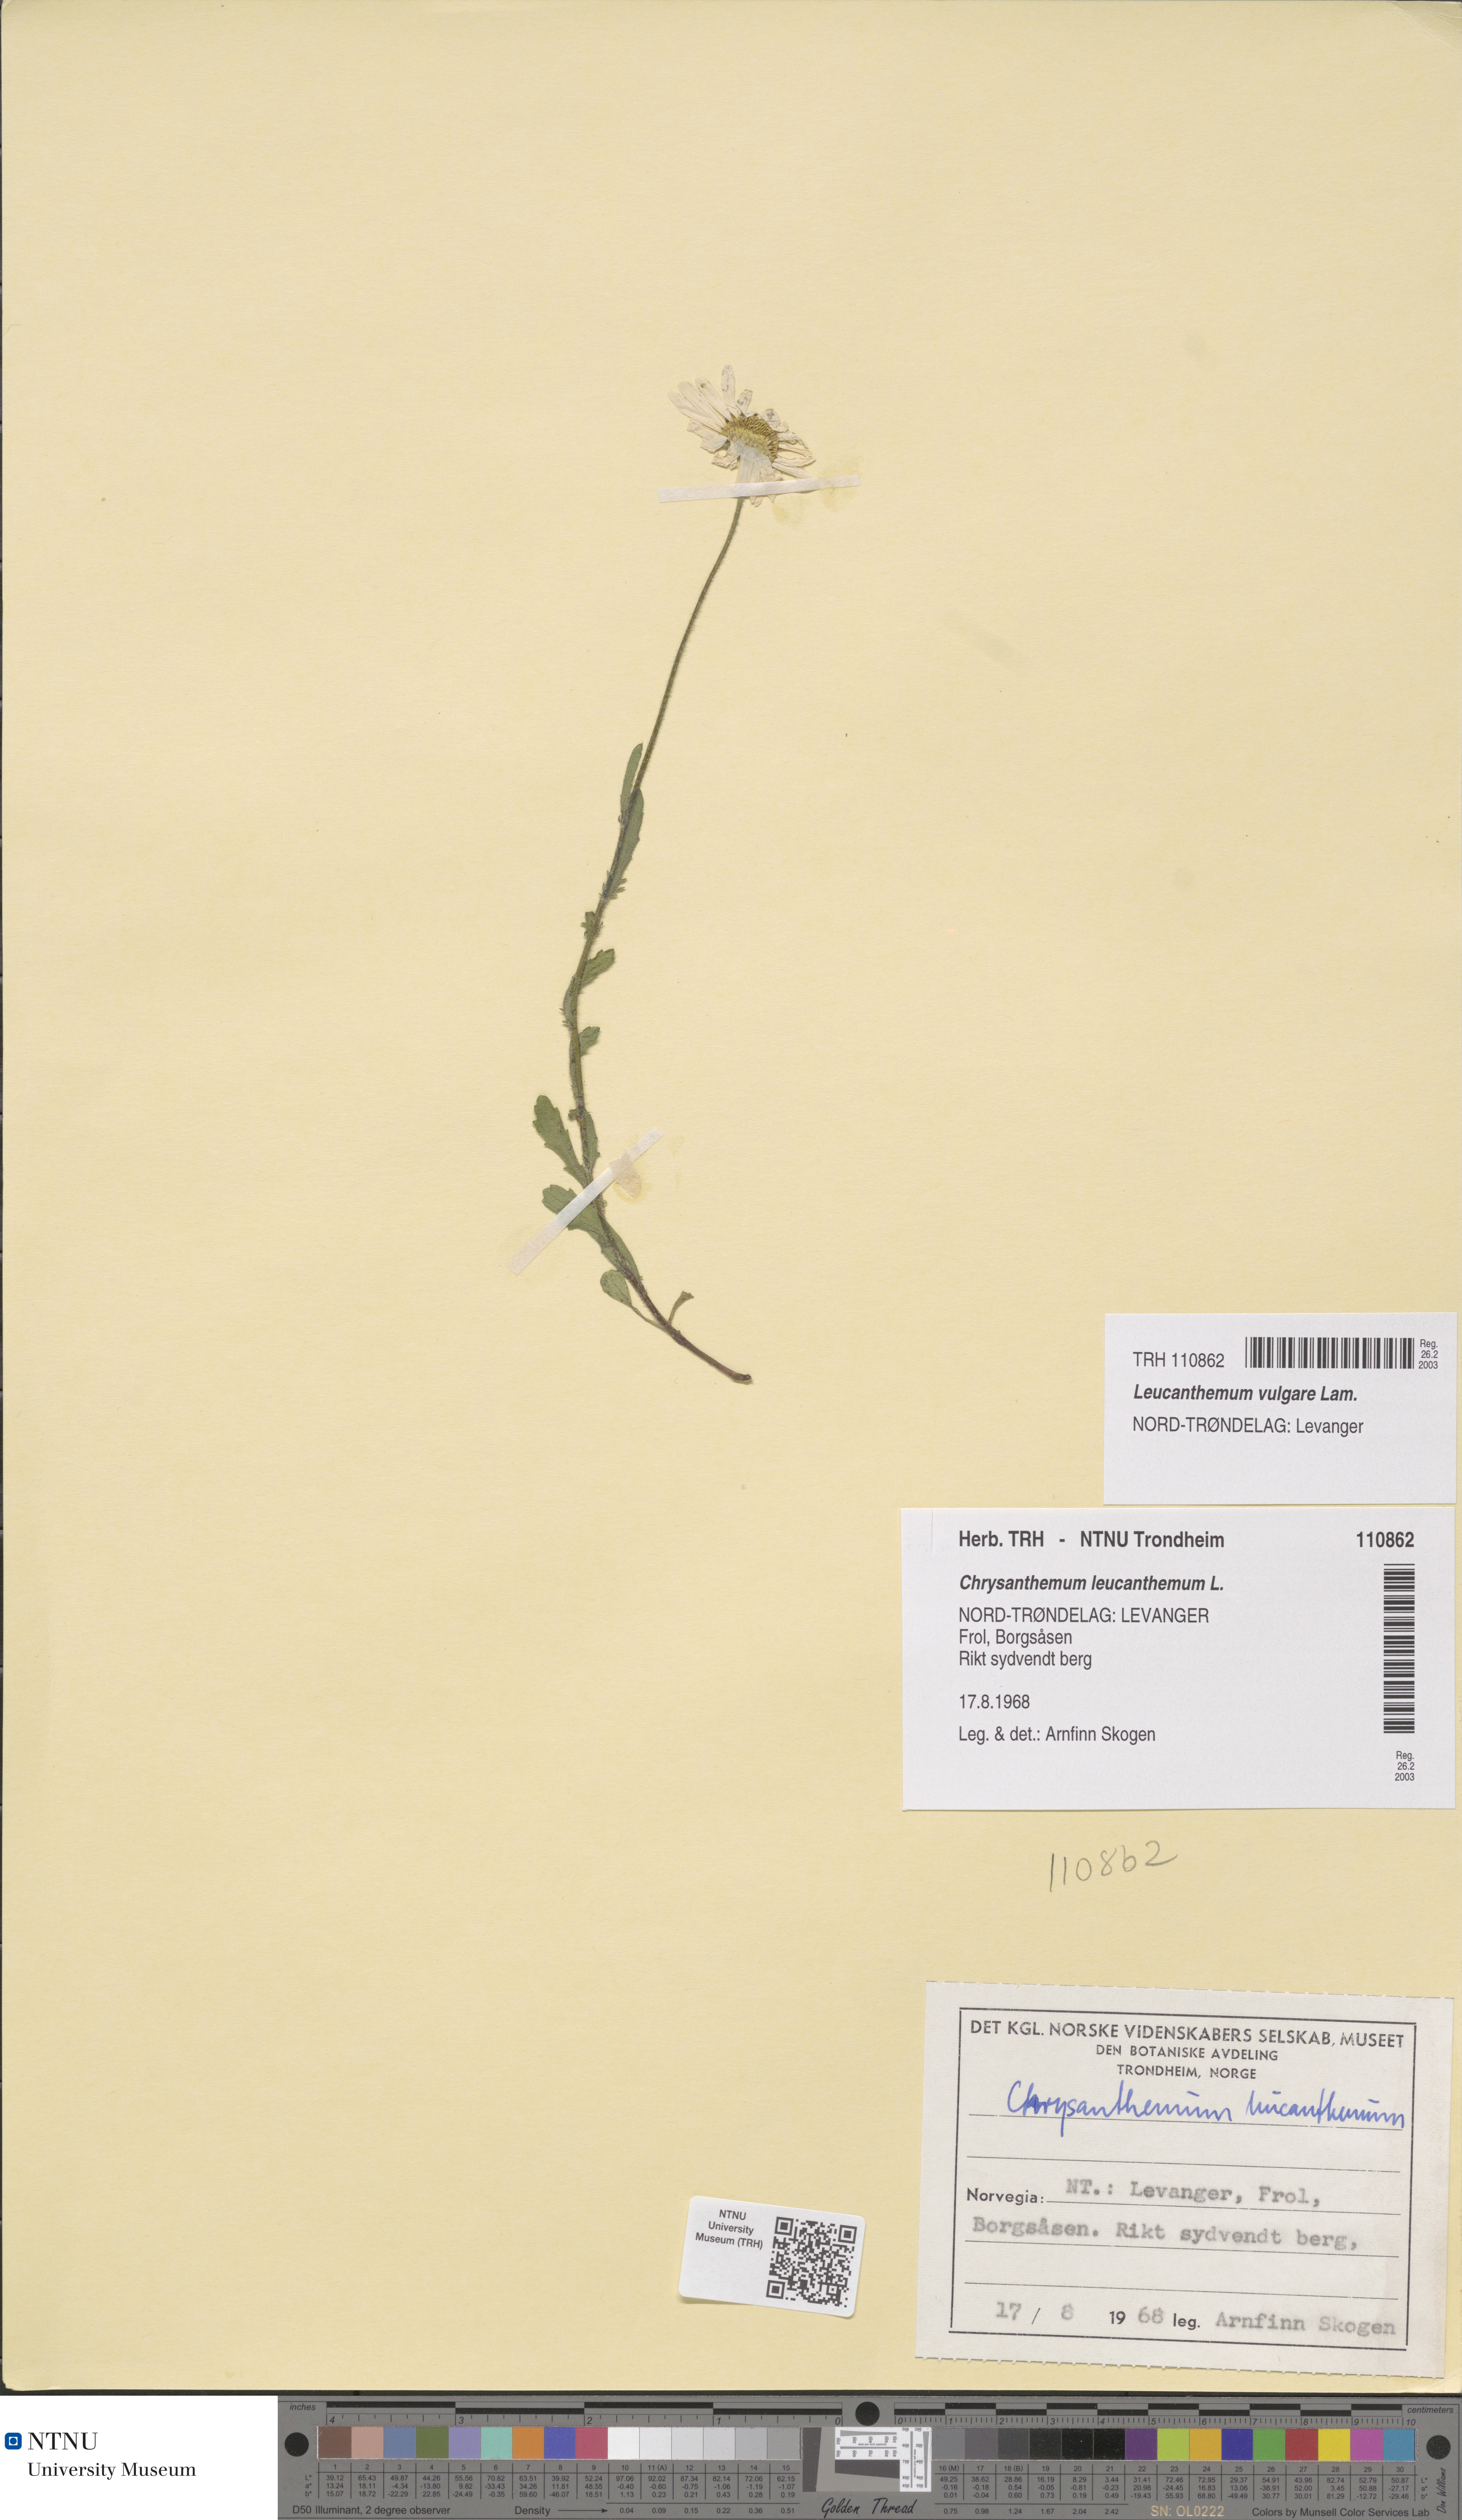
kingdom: Plantae
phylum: Tracheophyta
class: Magnoliopsida
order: Asterales
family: Asteraceae
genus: Leucanthemum
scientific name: Leucanthemum vulgare
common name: Oxeye daisy
